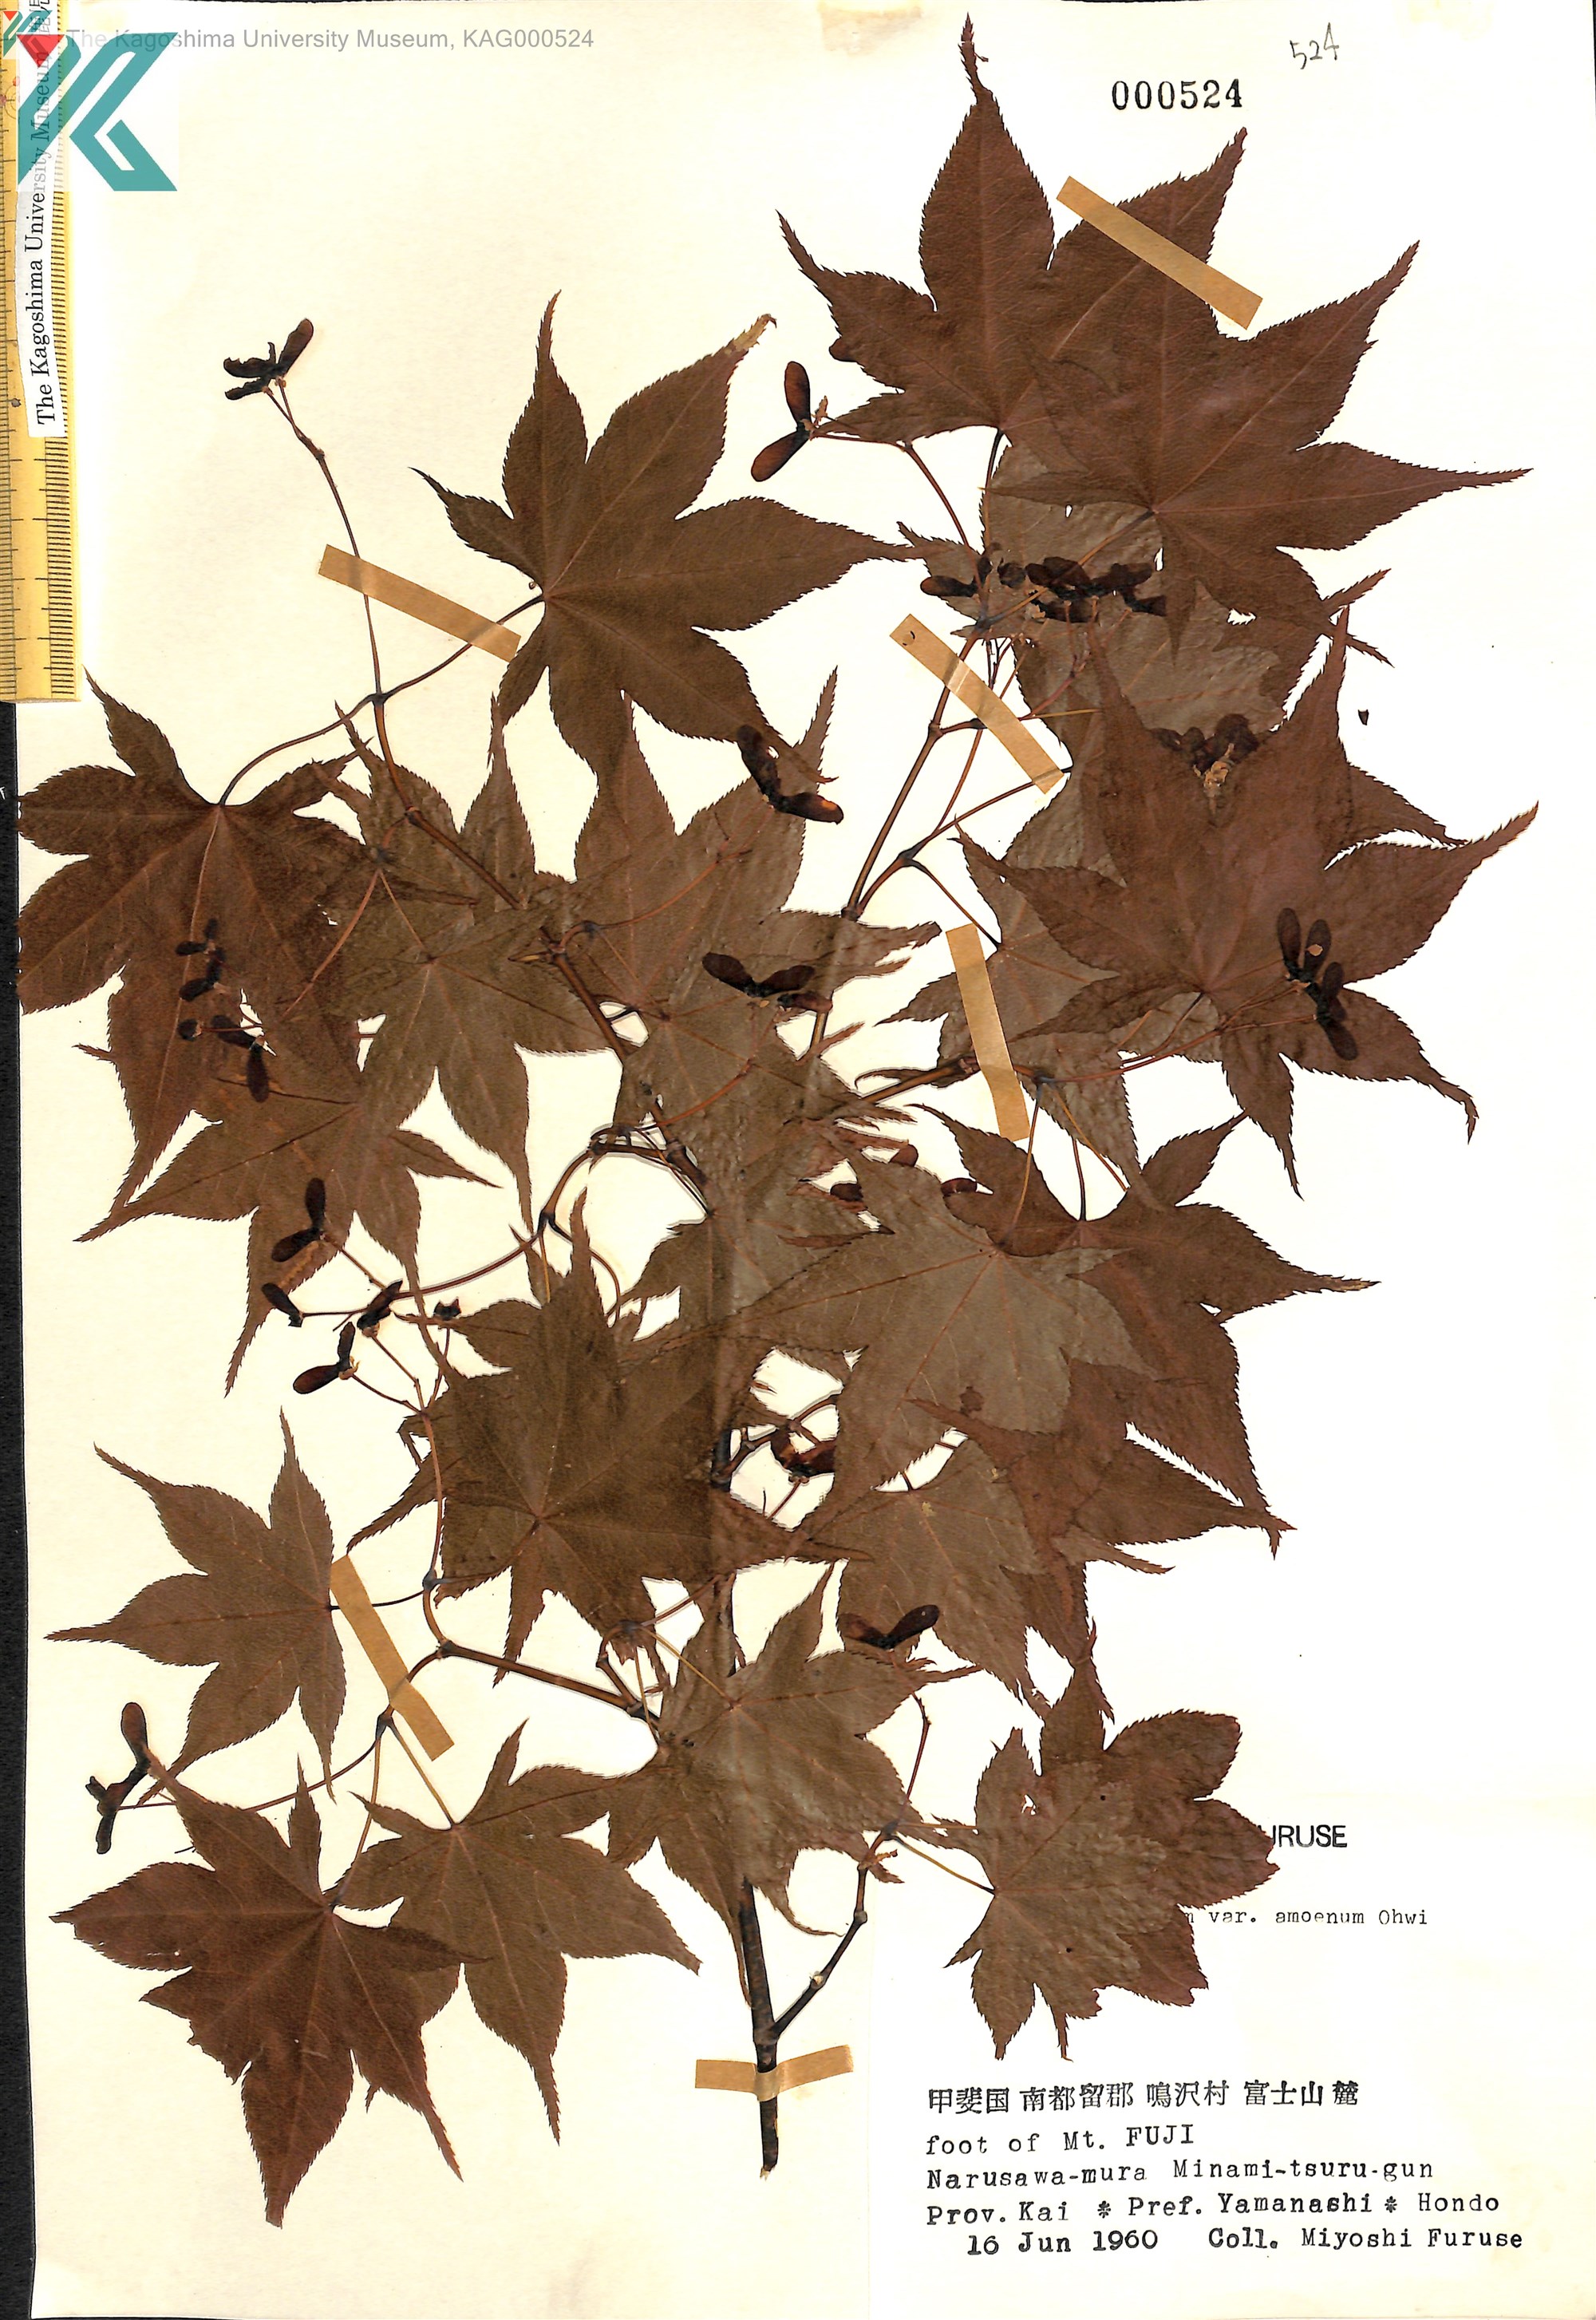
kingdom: Plantae
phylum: Tracheophyta
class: Magnoliopsida
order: Sapindales
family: Sapindaceae
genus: Acer
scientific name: Acer palmatum
